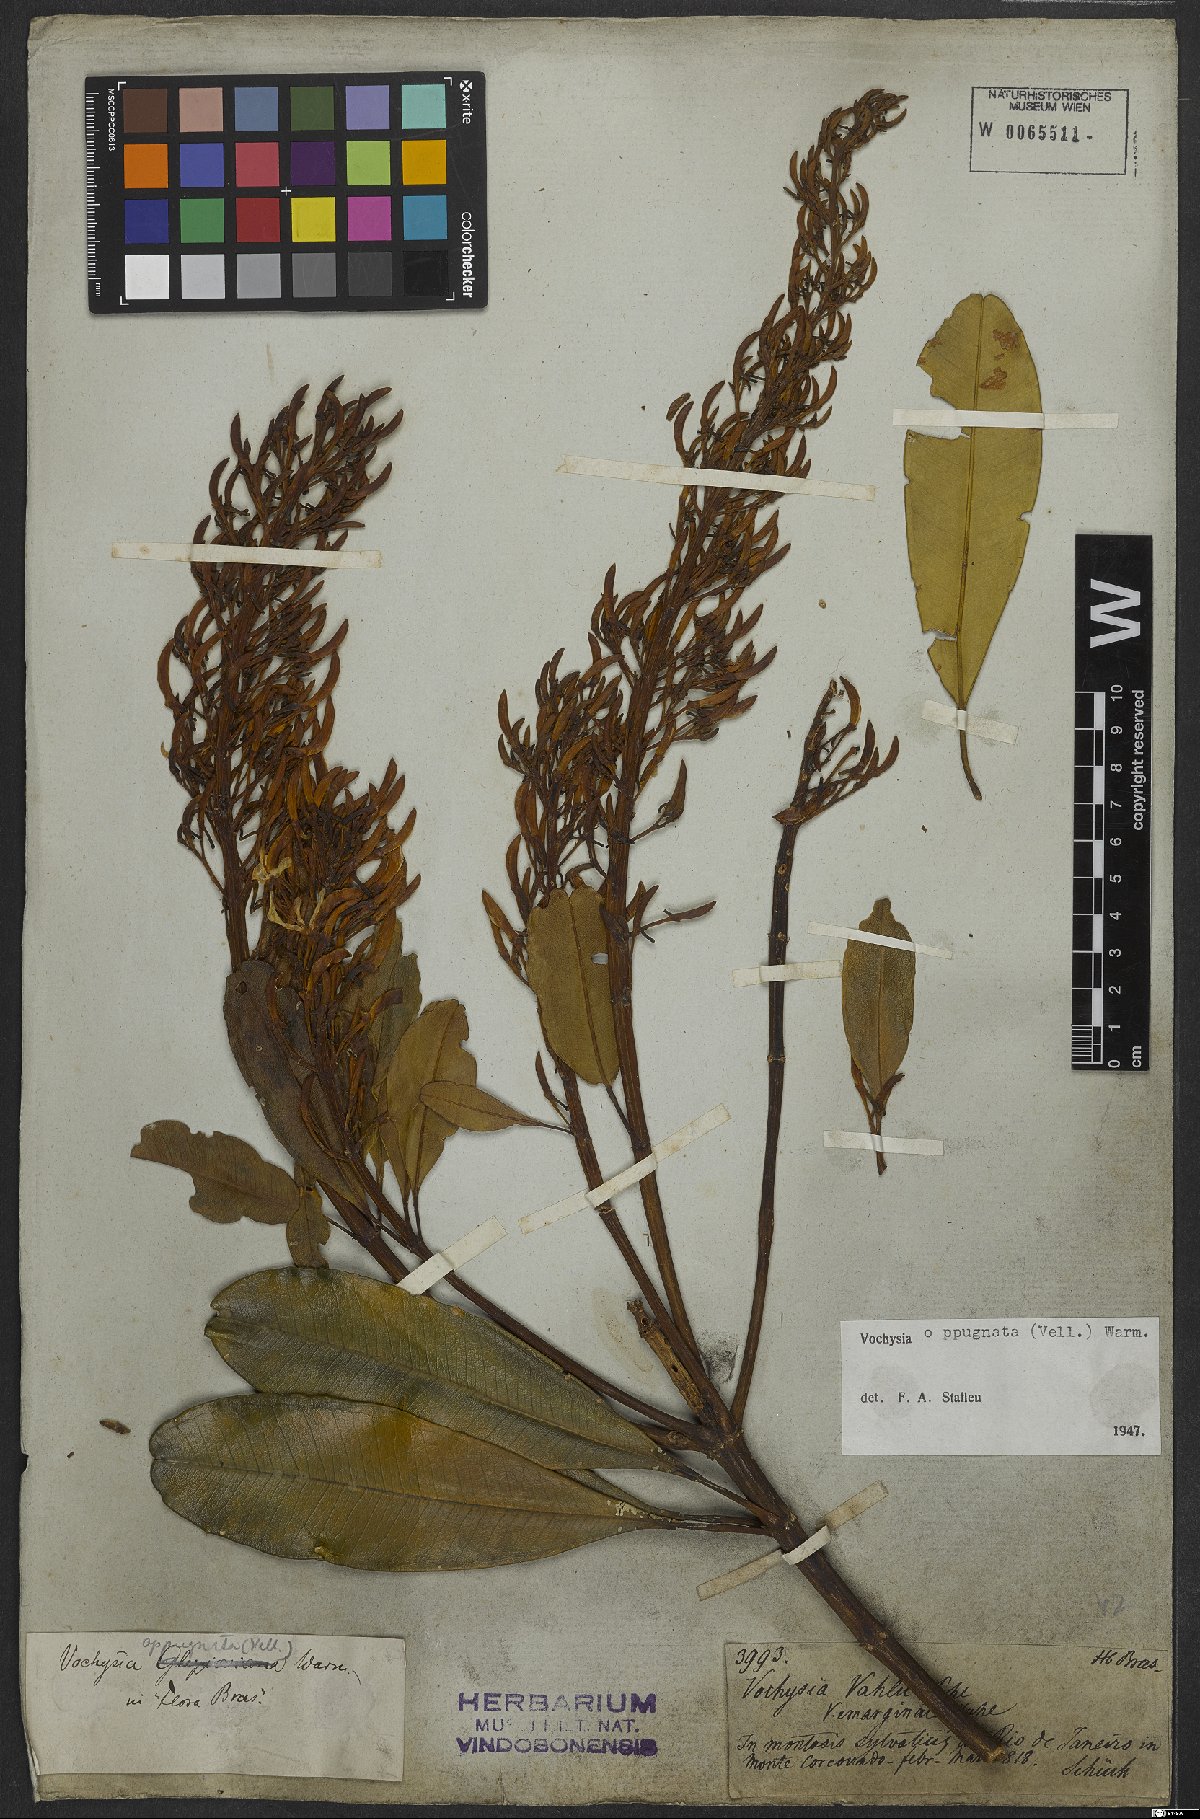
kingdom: Plantae
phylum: Tracheophyta
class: Magnoliopsida
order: Myrtales
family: Vochysiaceae
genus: Vochysia
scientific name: Vochysia oppugnata
